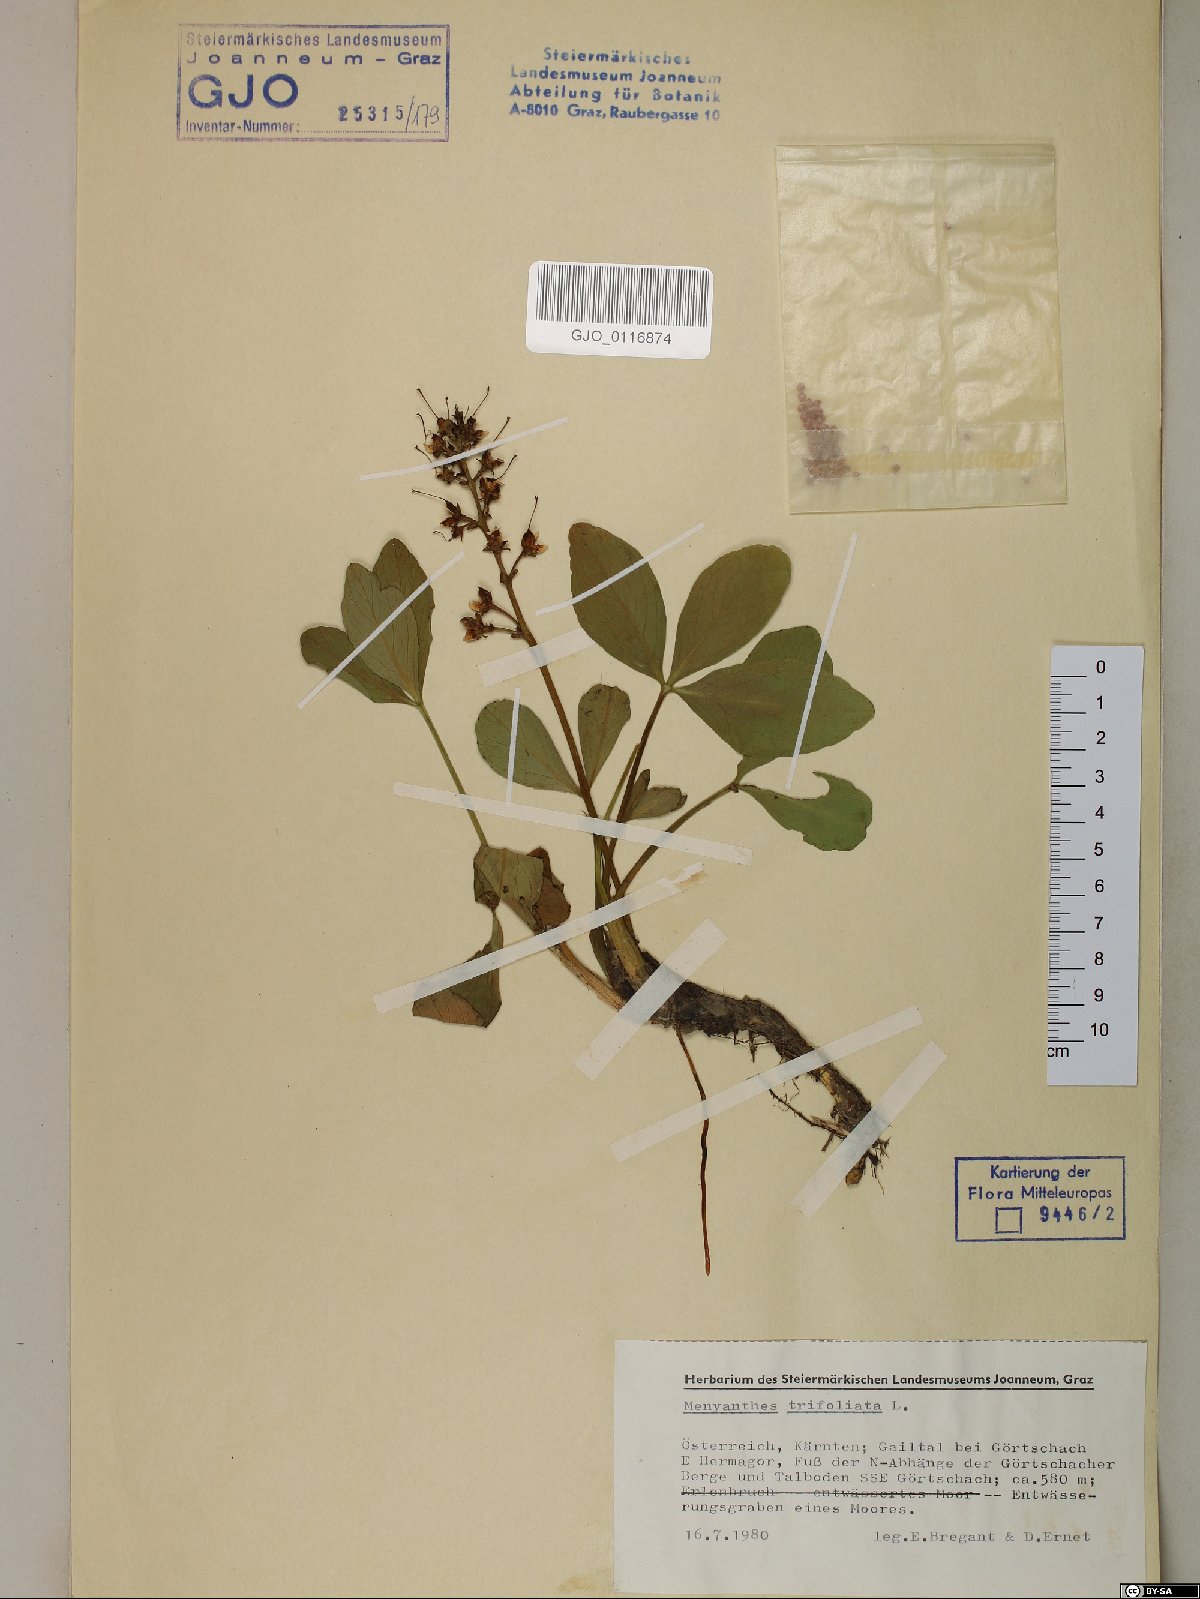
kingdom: Plantae
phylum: Tracheophyta
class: Magnoliopsida
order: Asterales
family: Menyanthaceae
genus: Menyanthes
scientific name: Menyanthes trifoliata
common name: Bogbean
